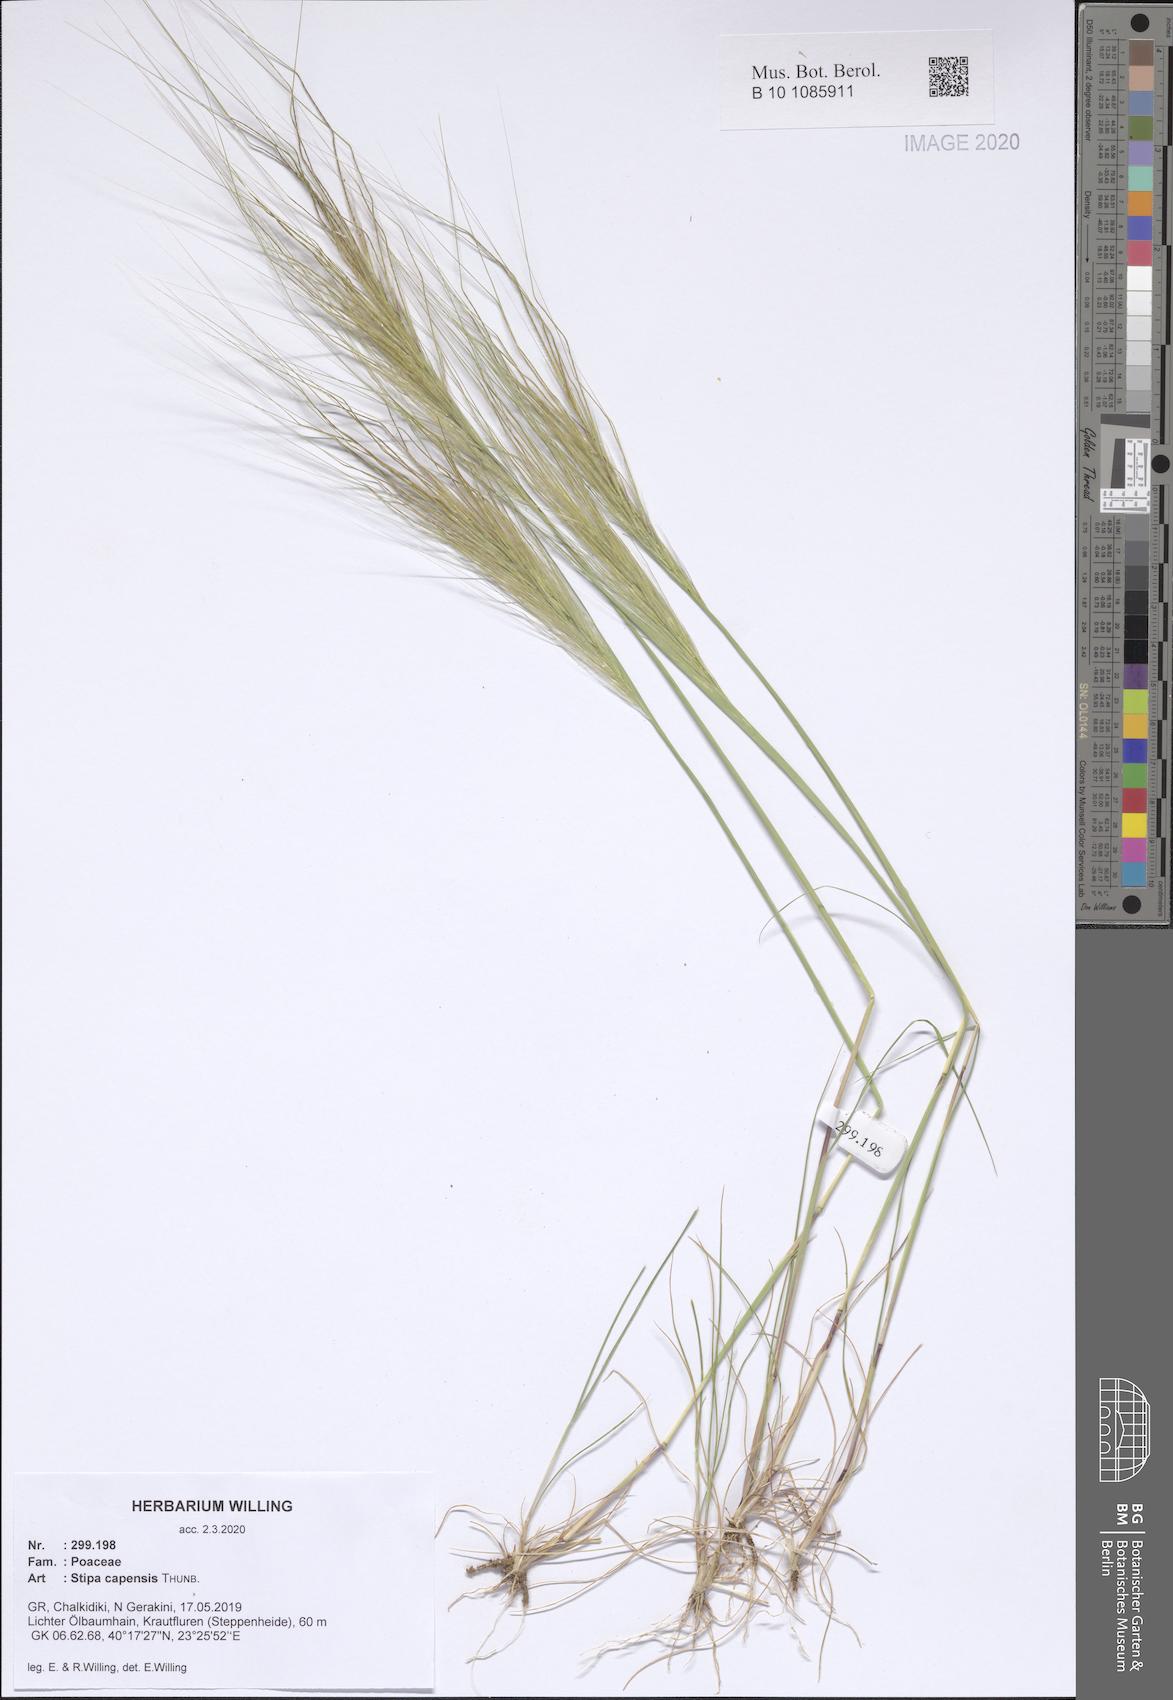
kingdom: Plantae
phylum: Tracheophyta
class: Liliopsida
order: Poales
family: Poaceae
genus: Stipellula
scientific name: Stipellula capensis
